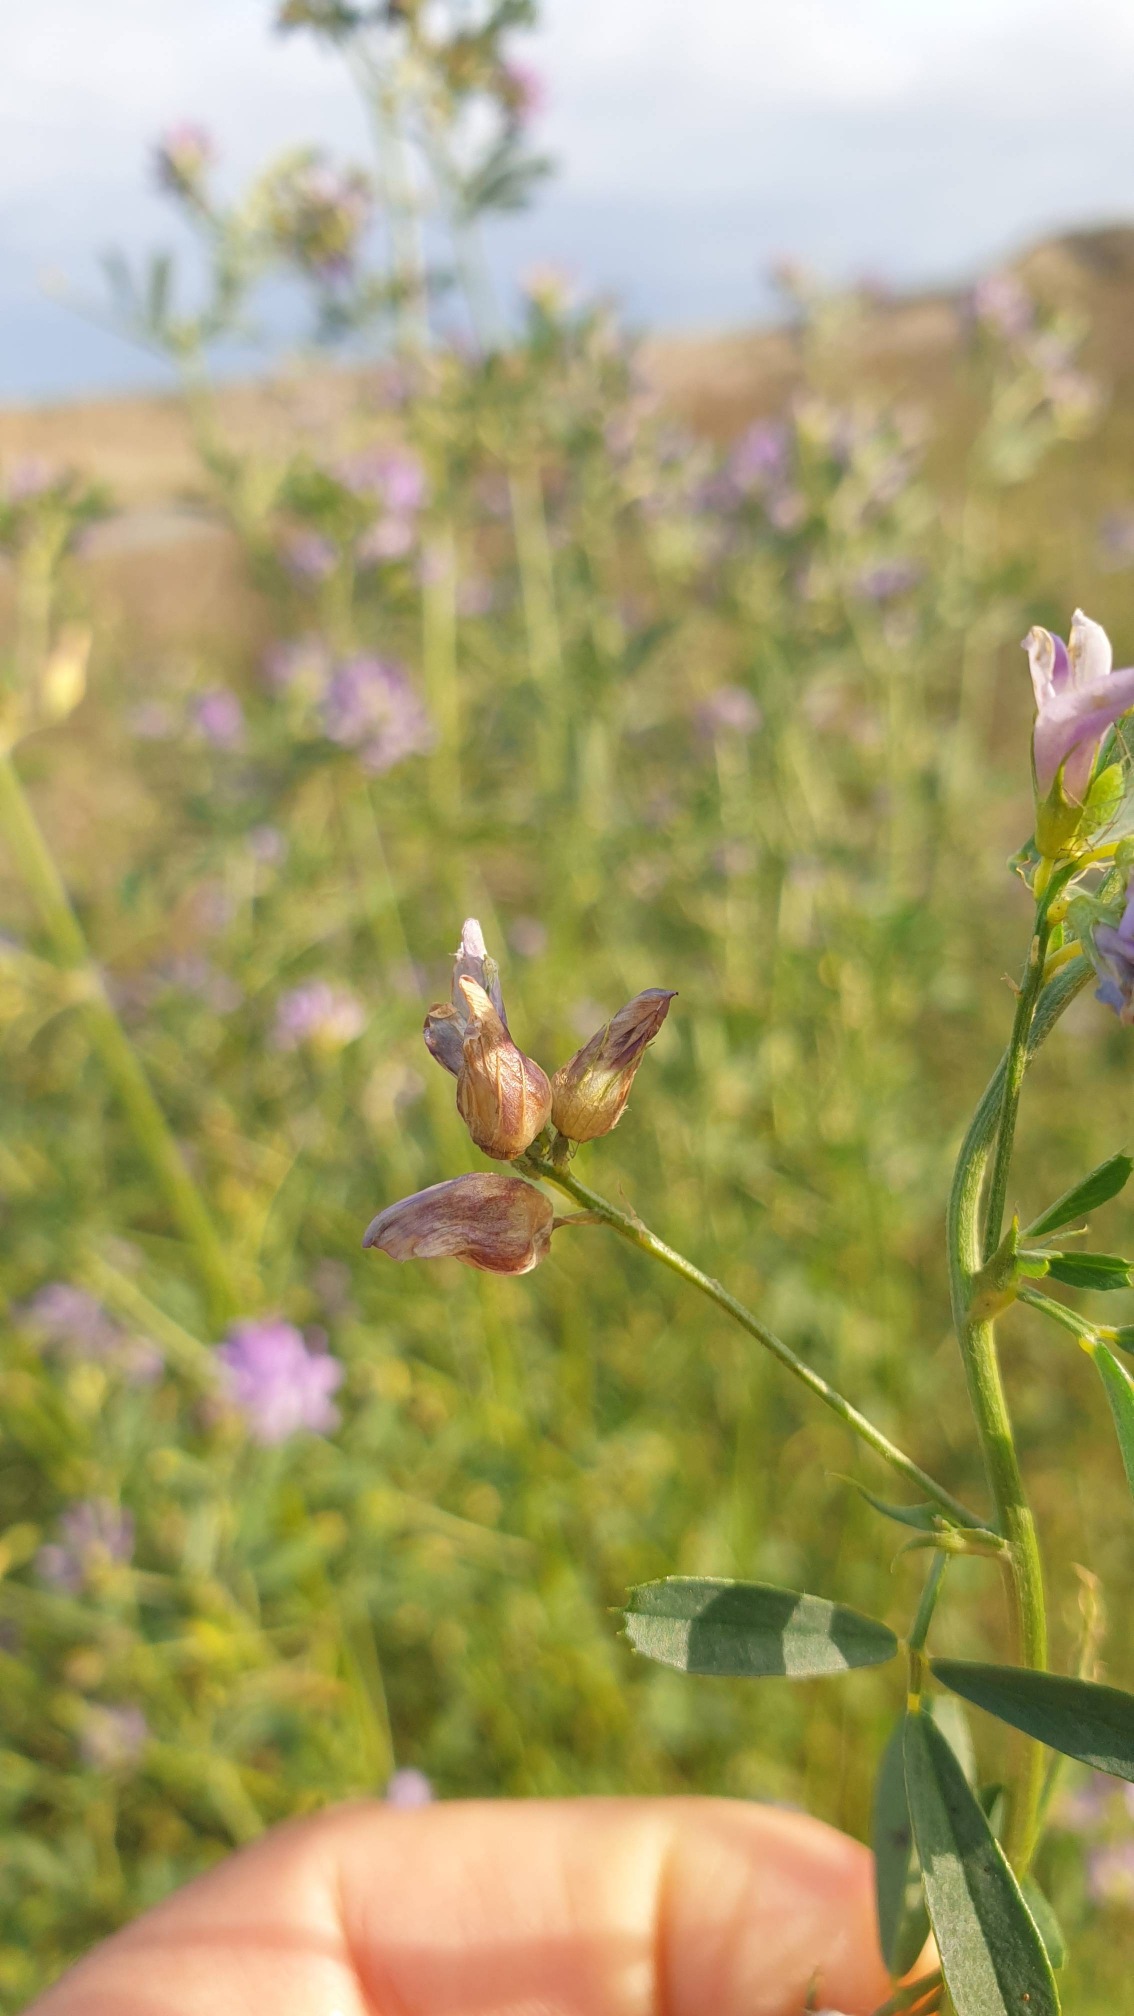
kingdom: Animalia
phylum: Arthropoda
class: Insecta
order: Diptera
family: Cecidomyiidae
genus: Contarinia
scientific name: Contarinia medicaginis
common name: Lucerneblomstgalmyg
